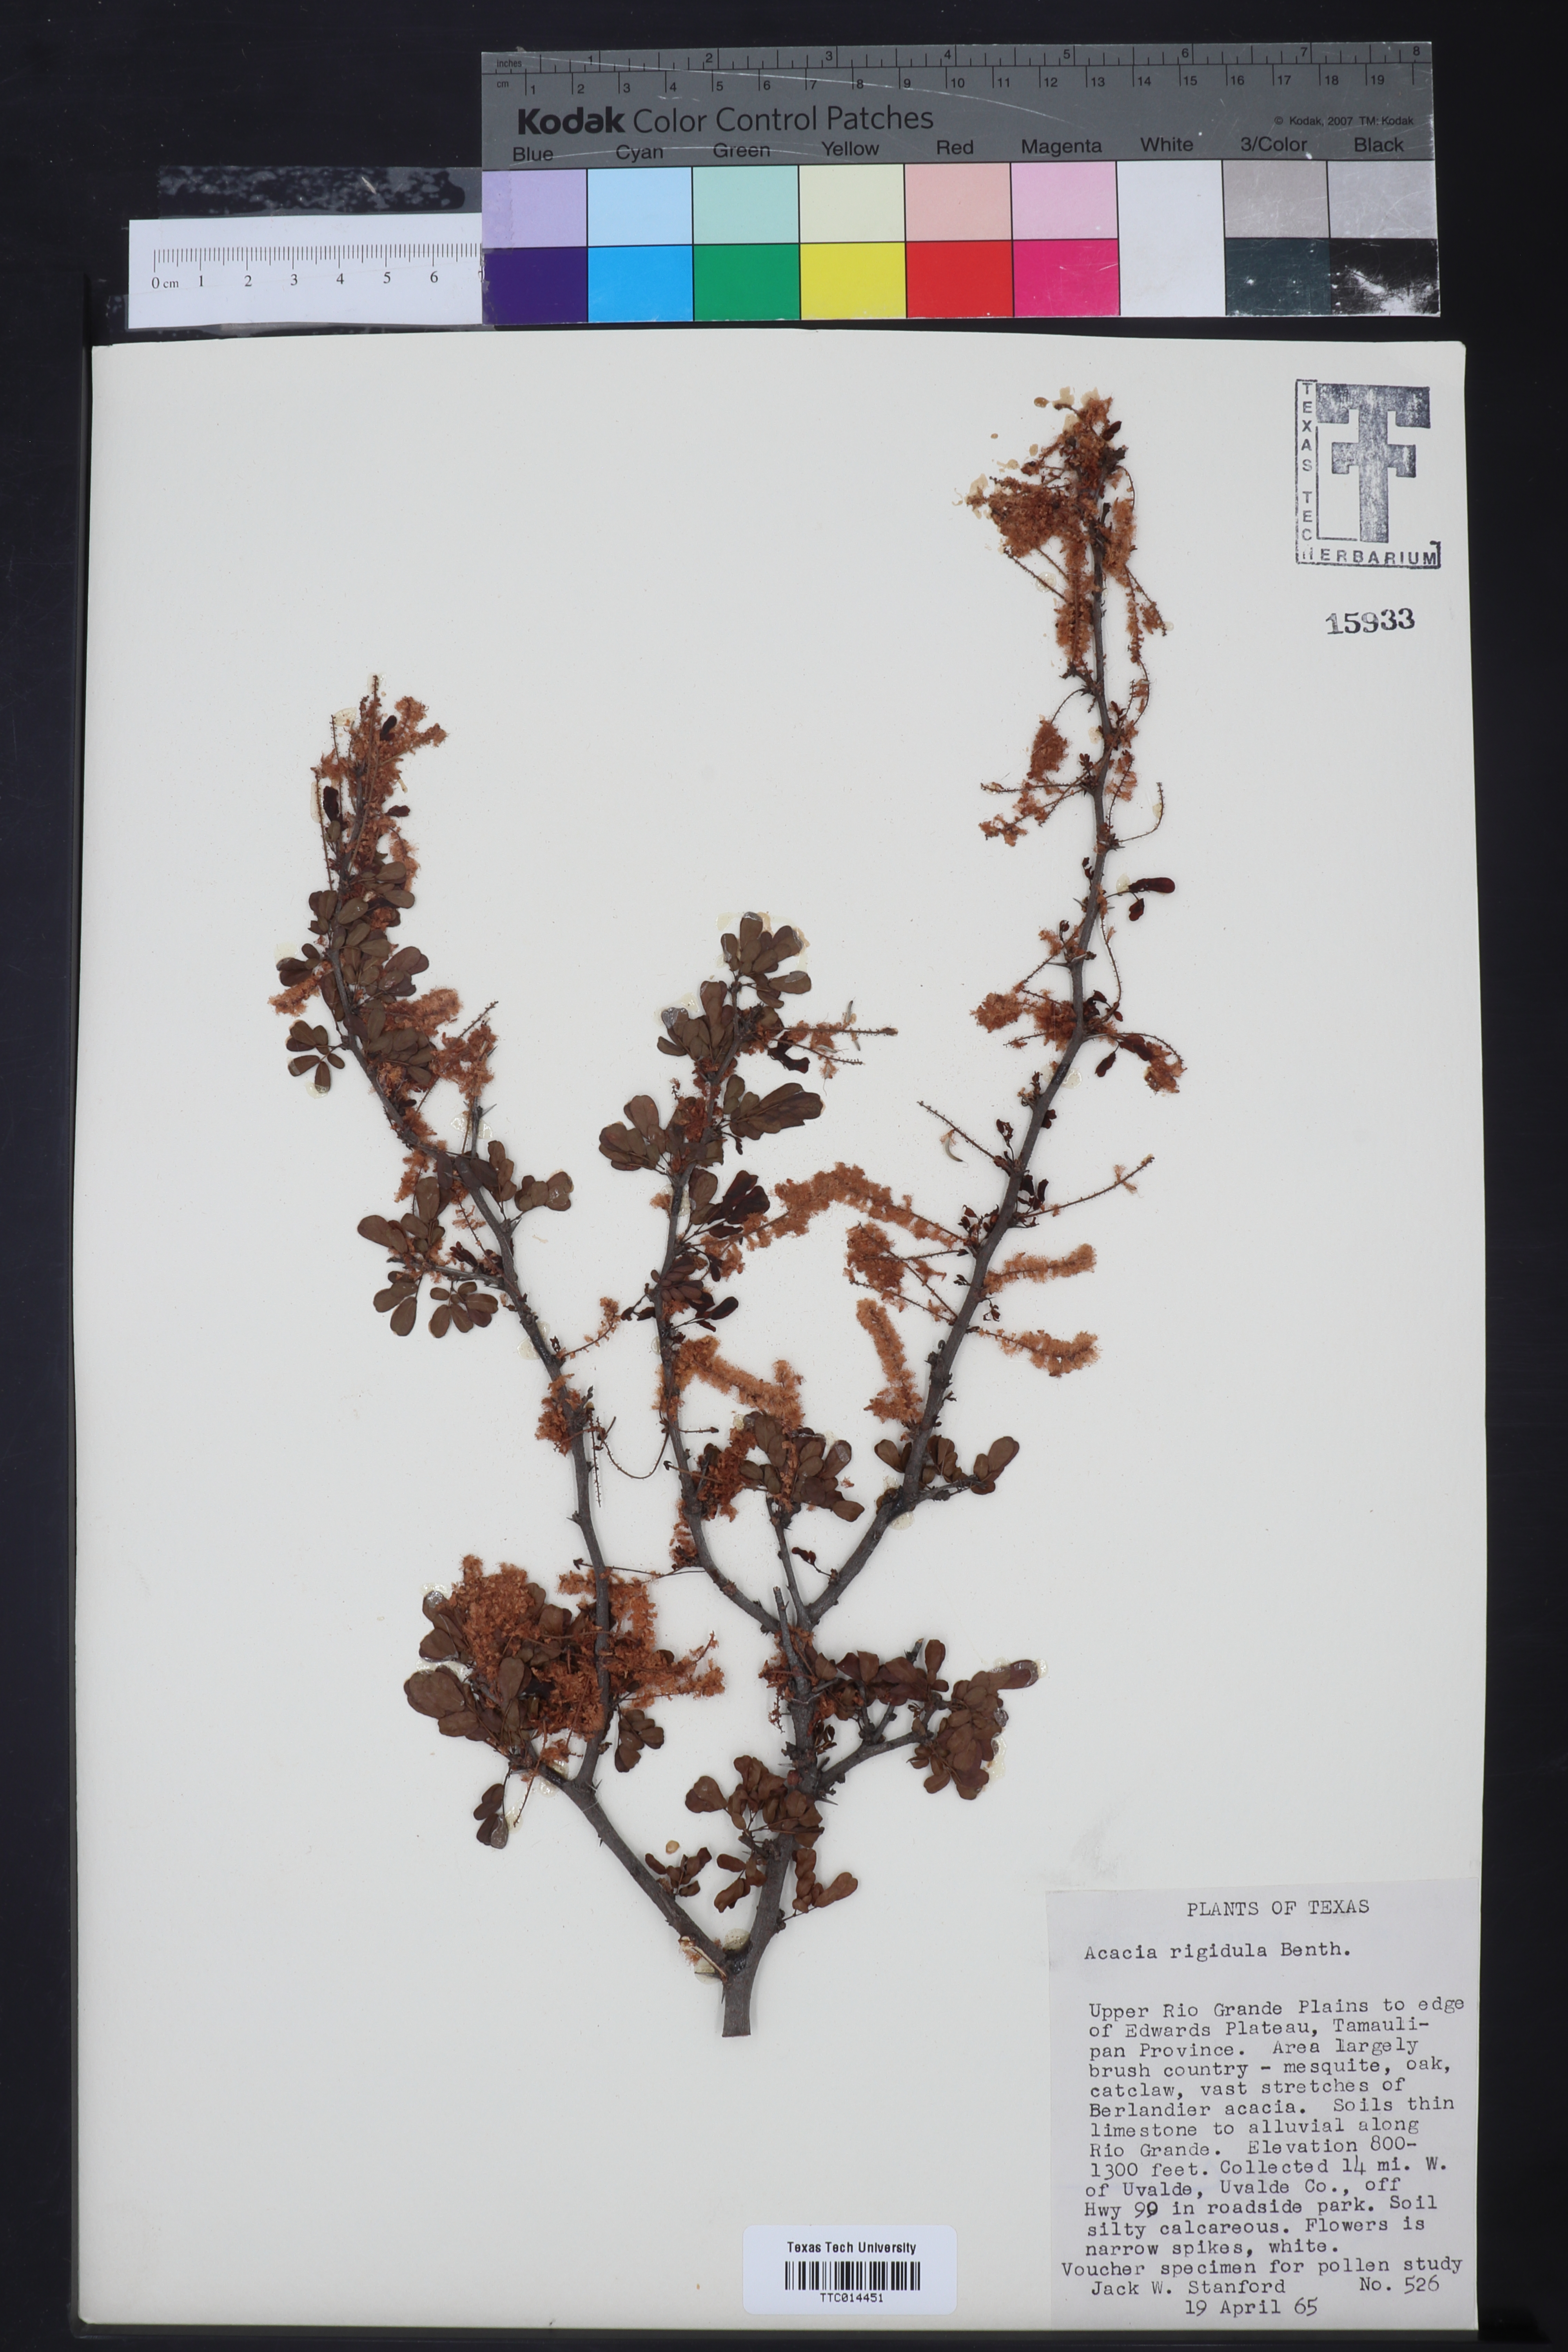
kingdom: Plantae
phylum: Tracheophyta
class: Magnoliopsida
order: Fabales
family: Fabaceae
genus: Vachellia
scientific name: Vachellia rigidula
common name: Blackbrush
